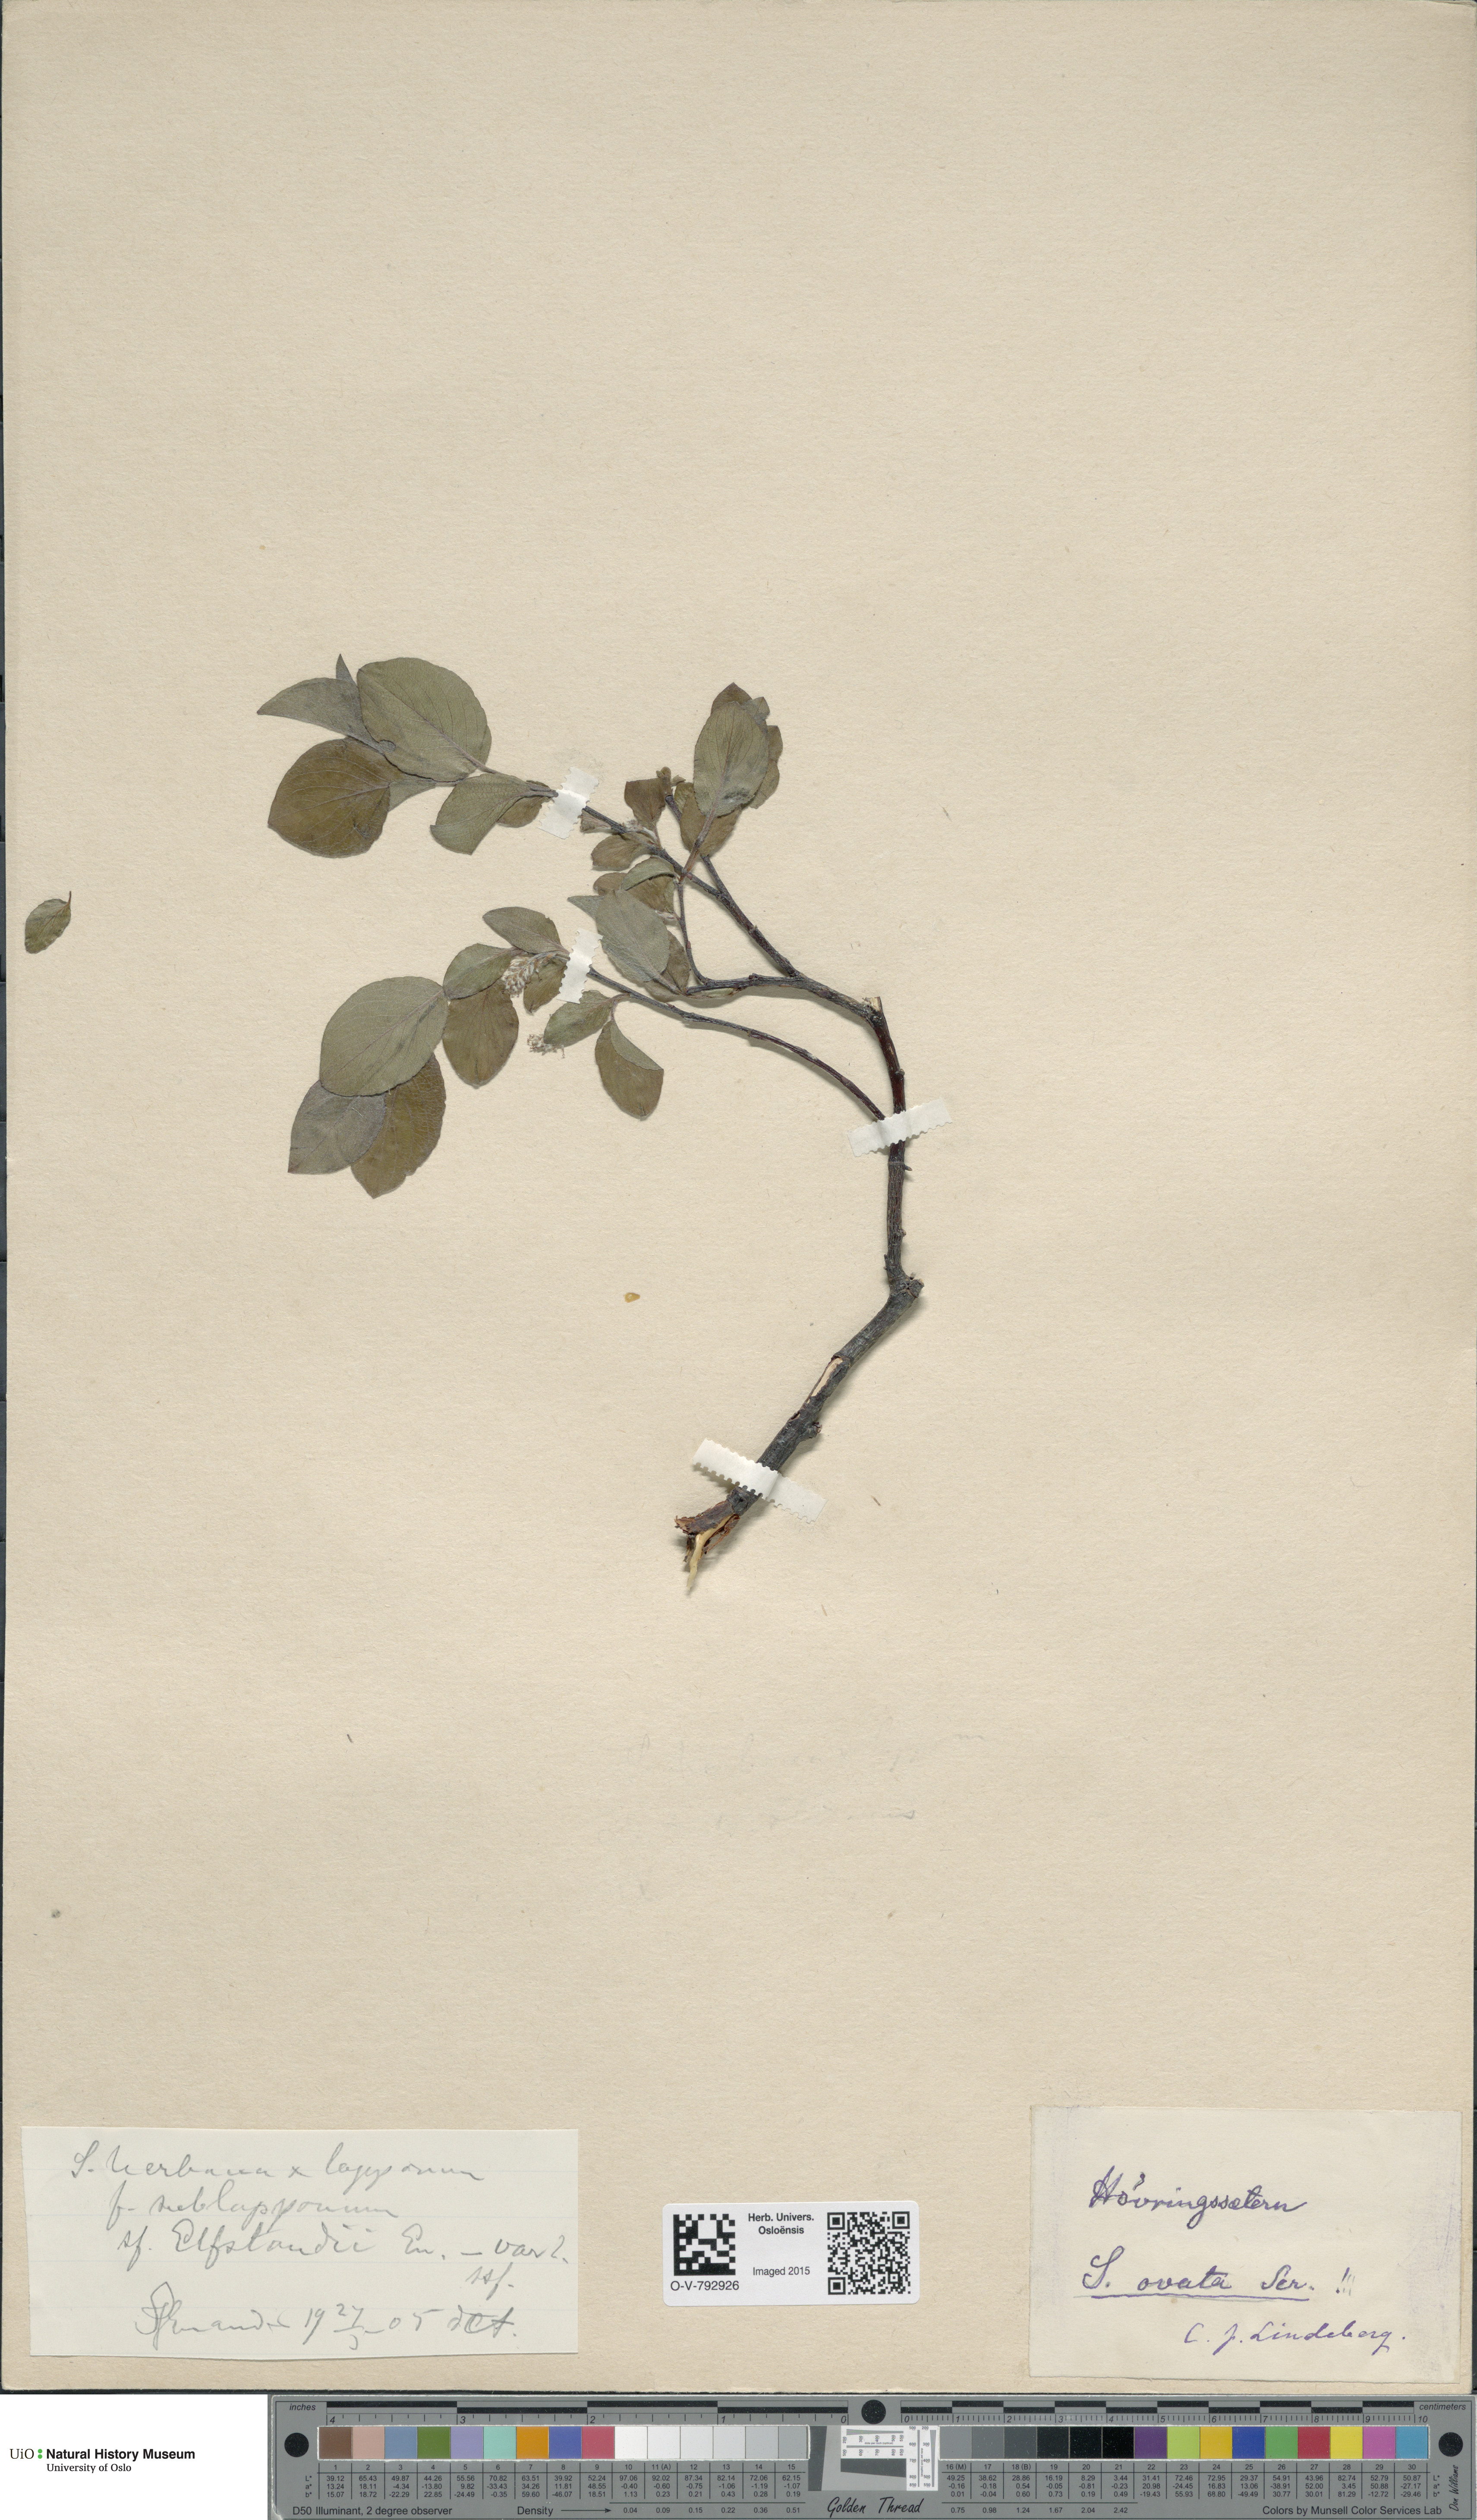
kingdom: Plantae
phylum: Tracheophyta
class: Magnoliopsida
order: Malpighiales
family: Salicaceae
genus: Salix
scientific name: Salix
